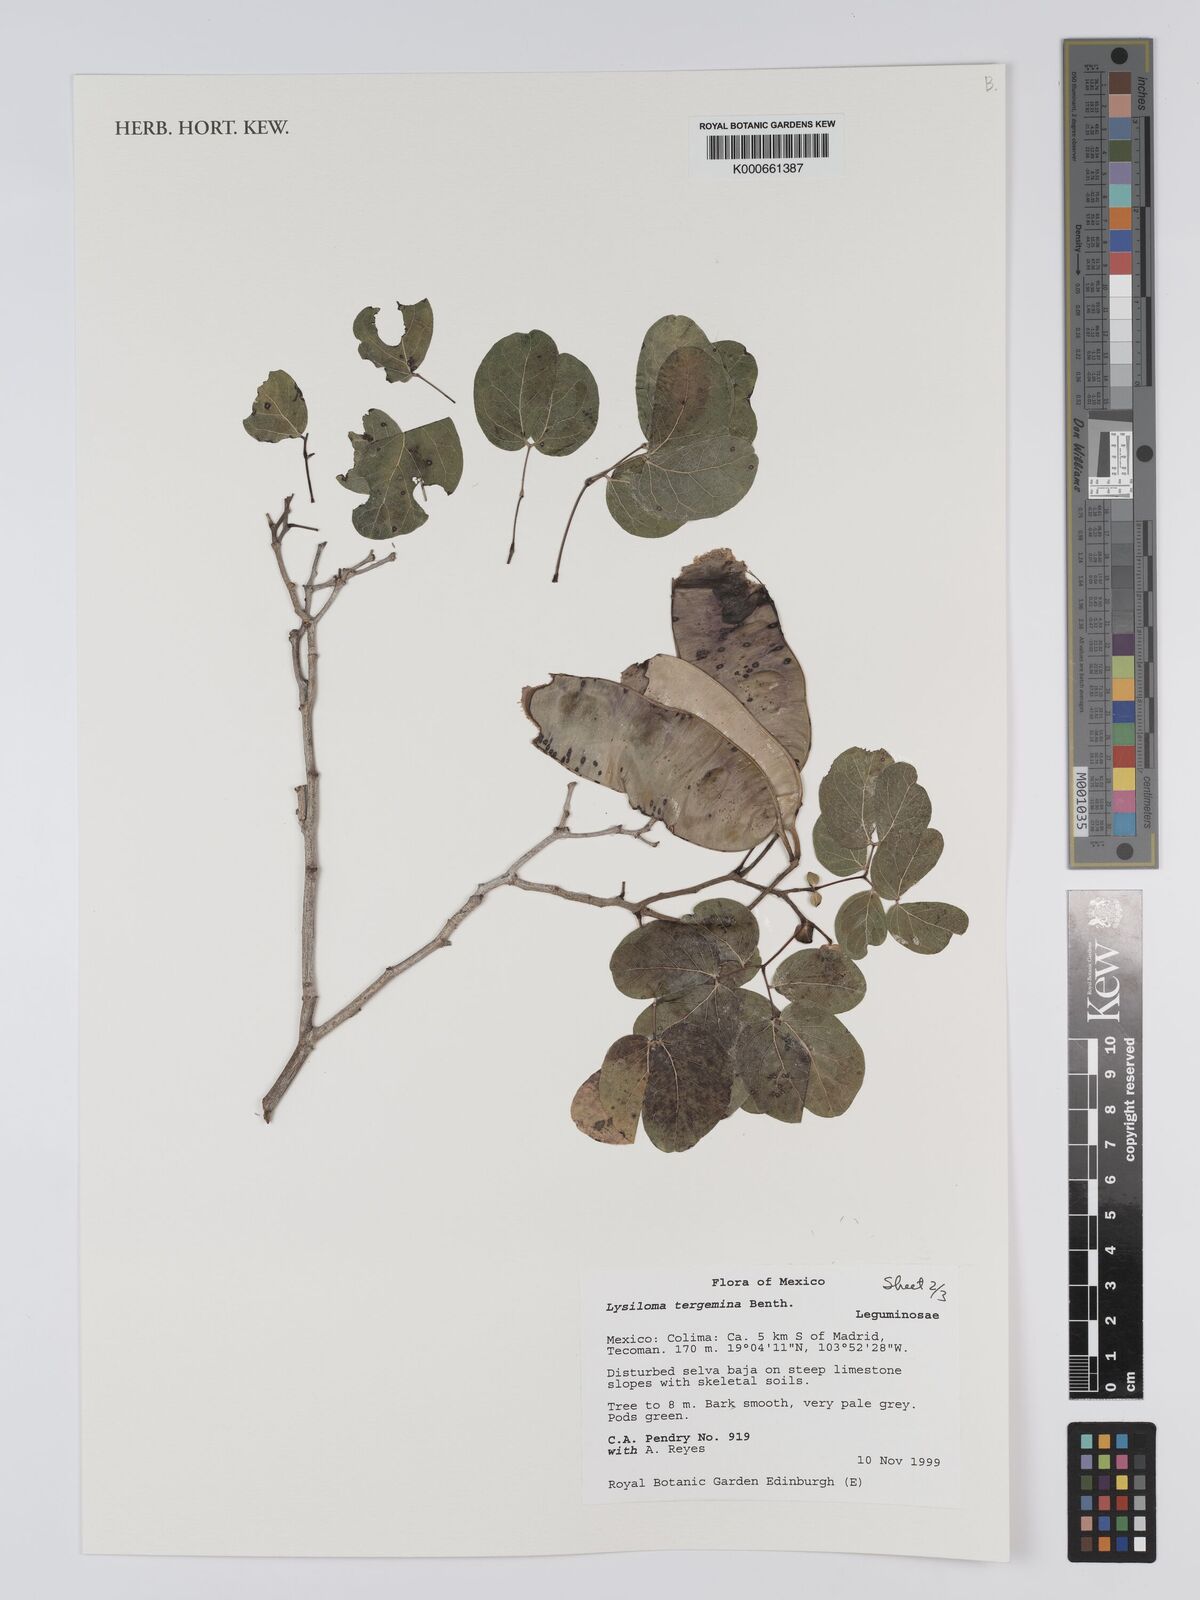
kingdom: Plantae
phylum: Tracheophyta
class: Magnoliopsida
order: Fabales
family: Fabaceae
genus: Lysiloma
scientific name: Lysiloma tergeminum
